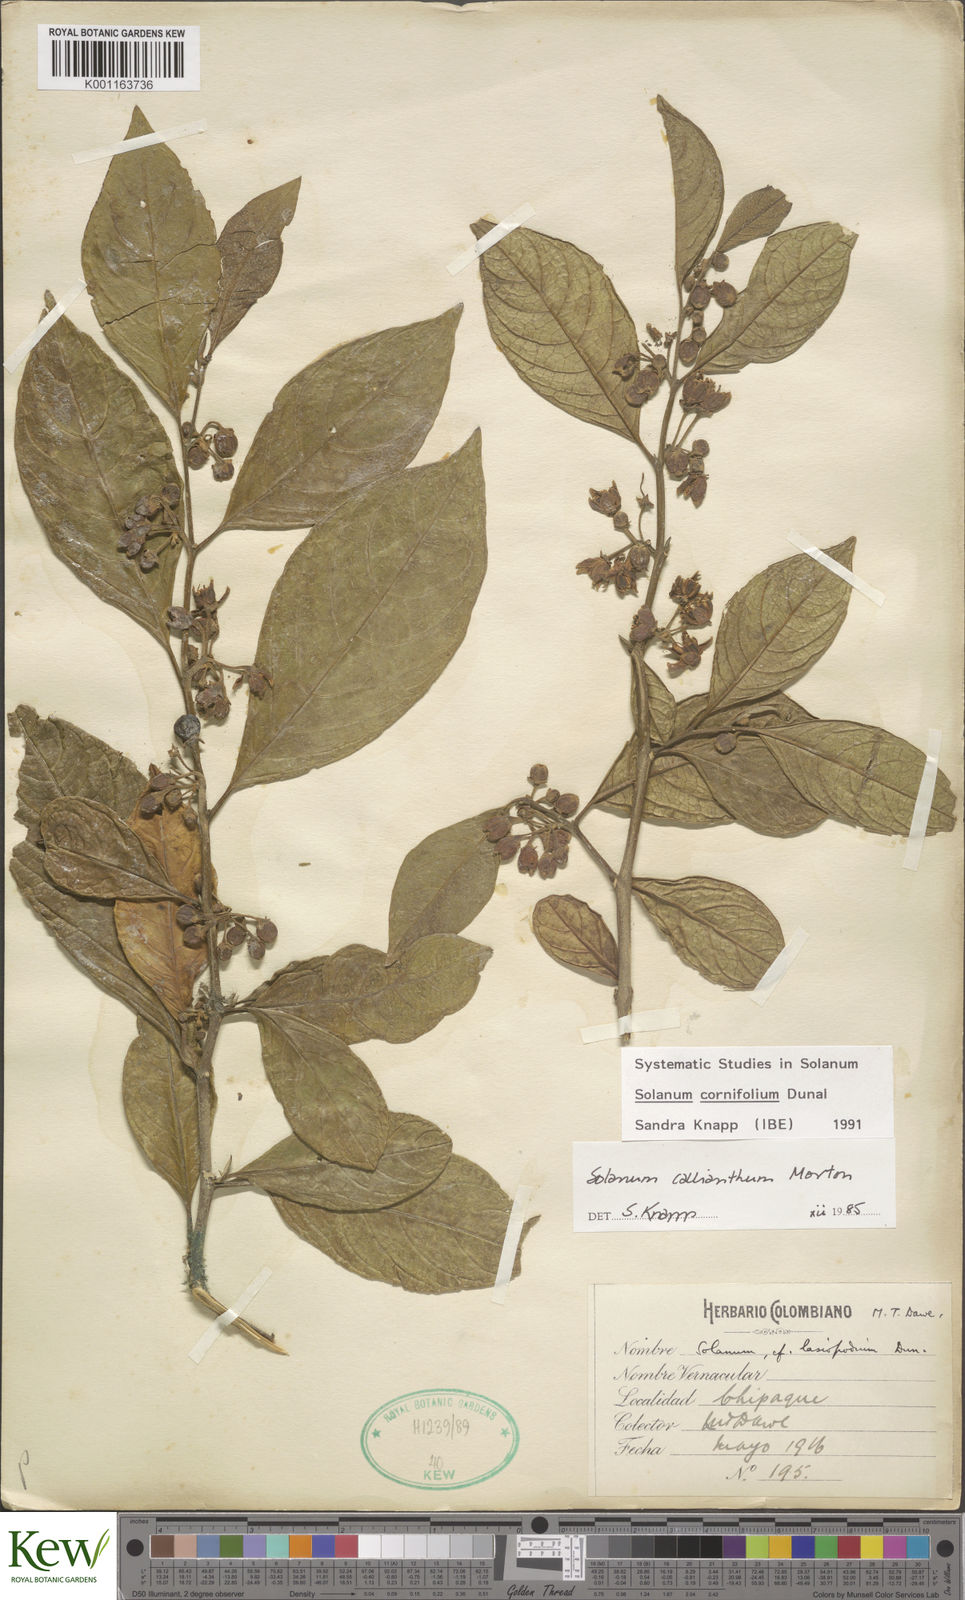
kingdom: Plantae
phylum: Tracheophyta
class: Magnoliopsida
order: Solanales
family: Solanaceae
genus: Solanum
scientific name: Solanum cornifolium
